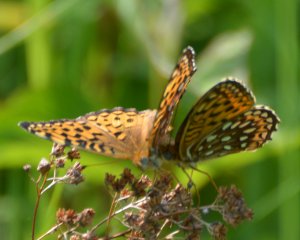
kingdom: Animalia
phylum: Arthropoda
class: Insecta
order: Lepidoptera
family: Nymphalidae
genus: Speyeria
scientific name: Speyeria atlantis
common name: Atlantis Fritillary
